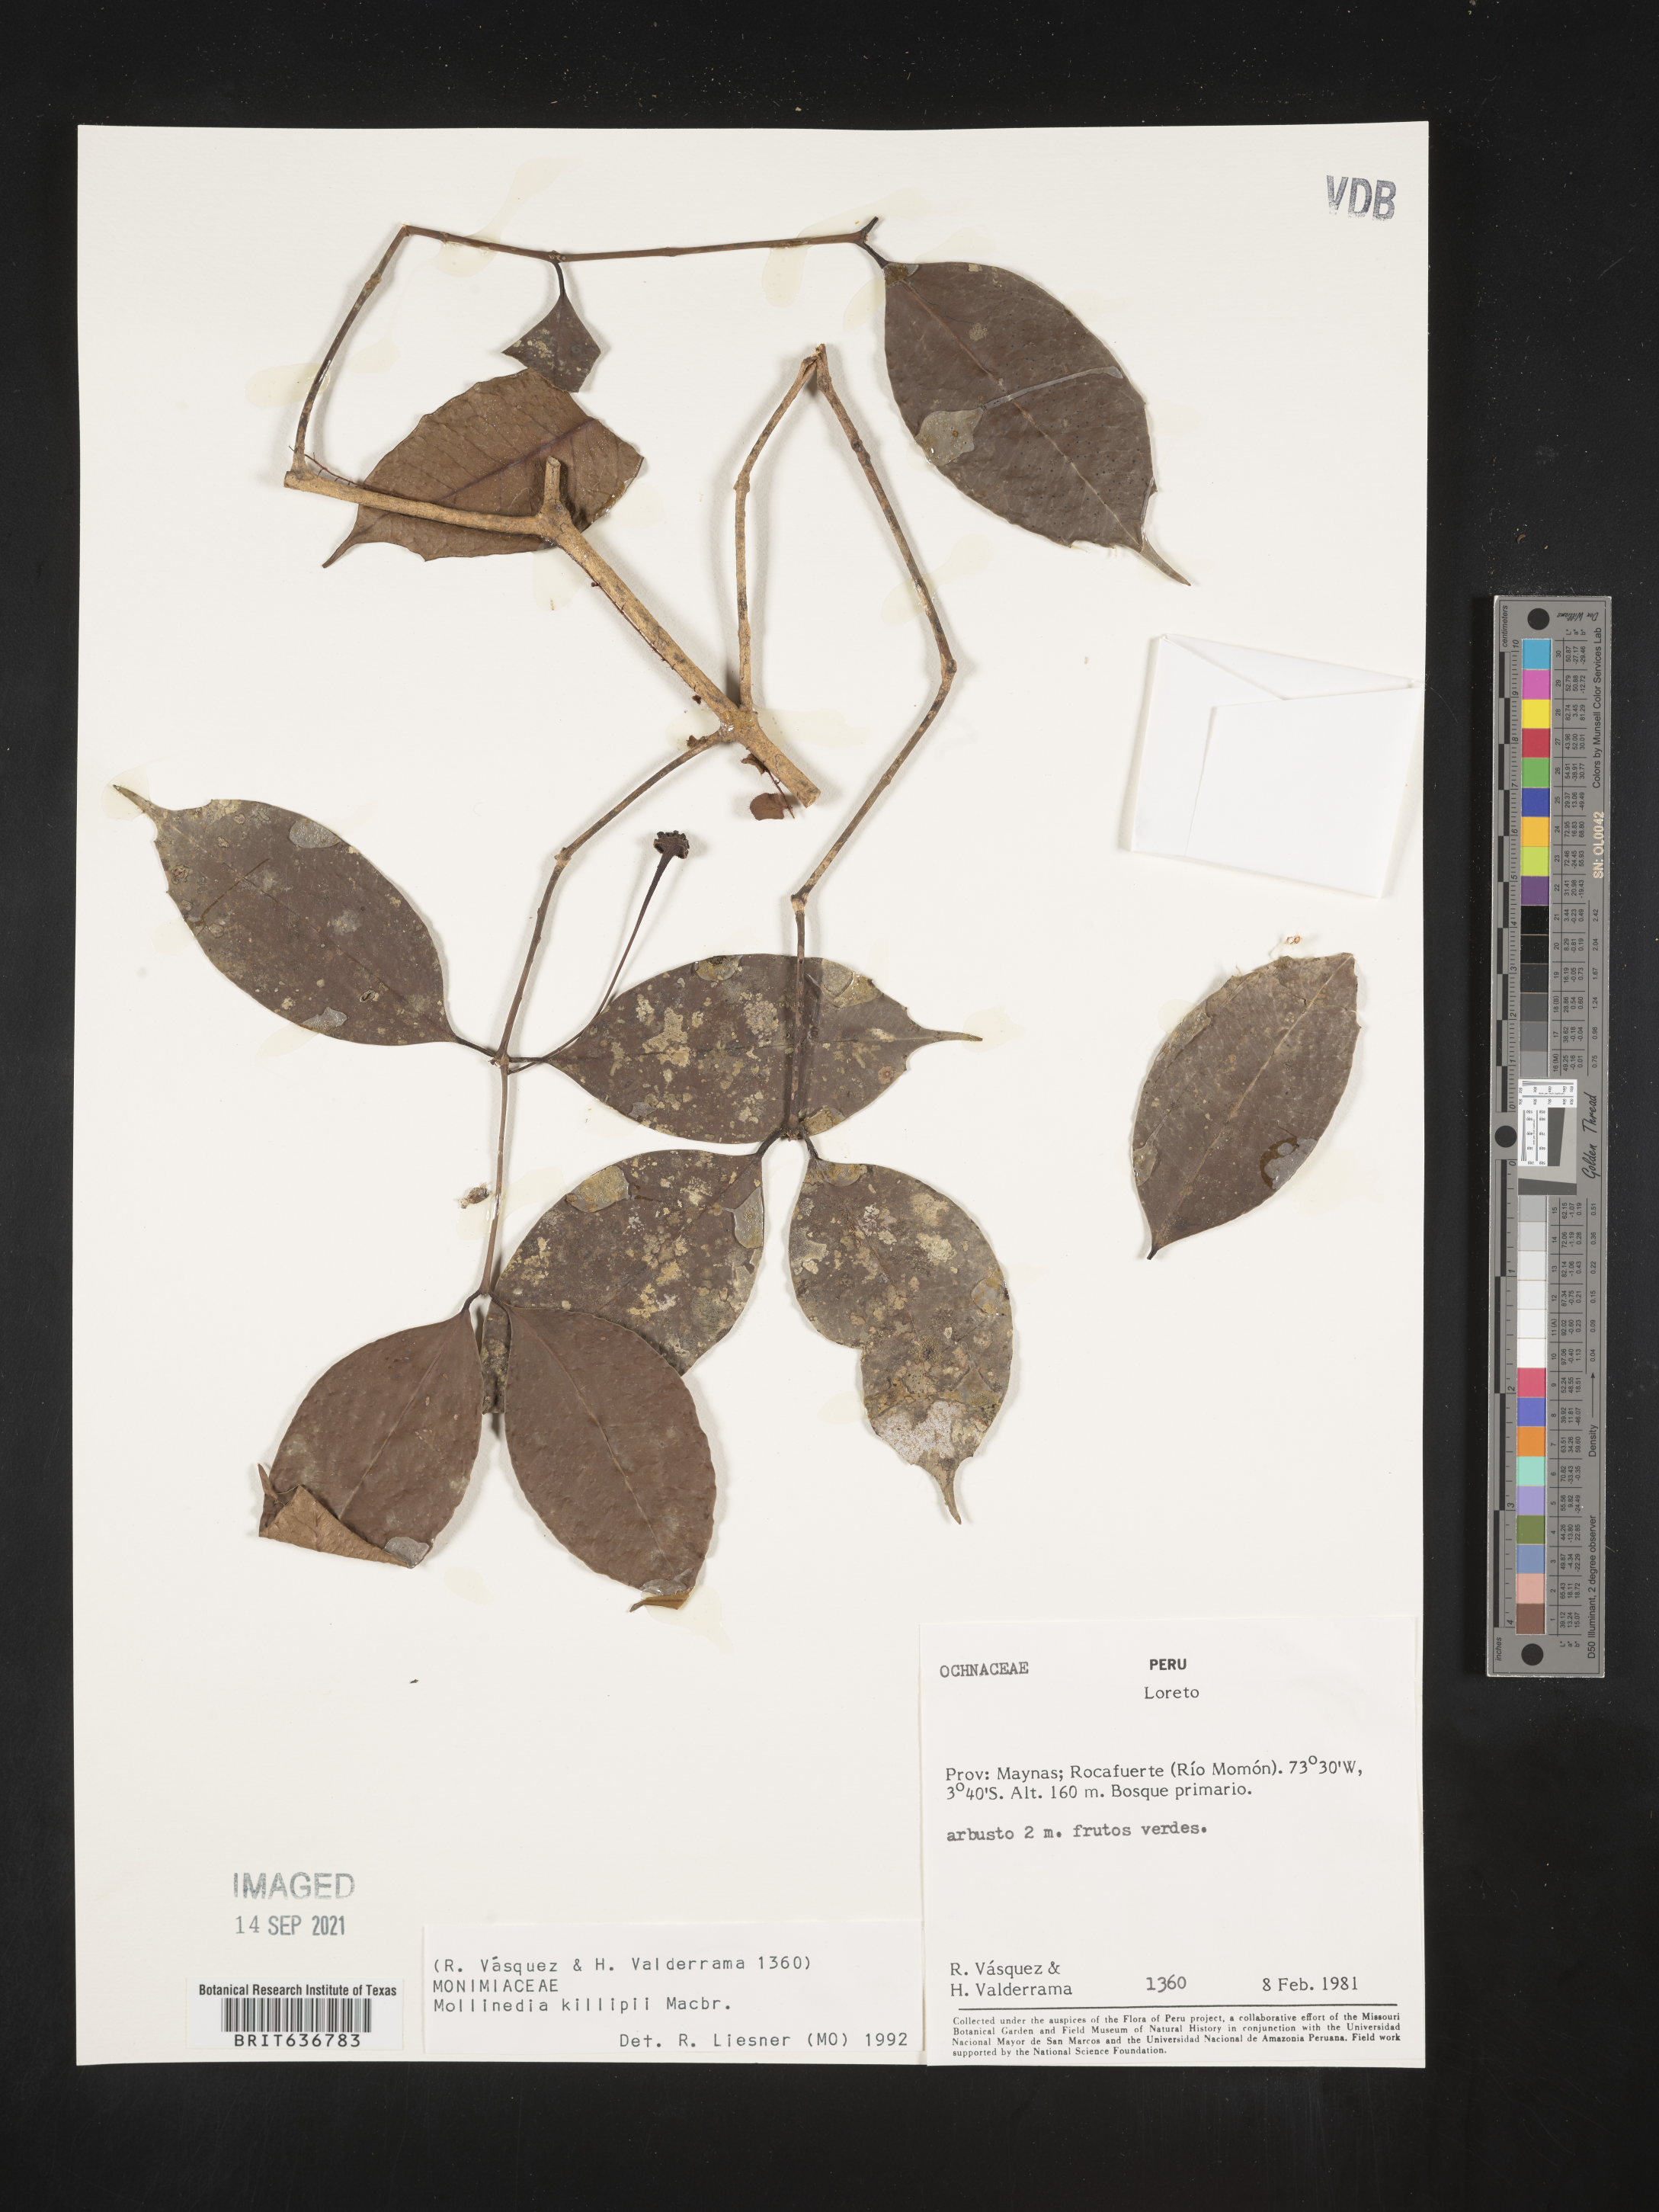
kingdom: Plantae
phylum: Tracheophyta
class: Magnoliopsida
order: Laurales
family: Monimiaceae
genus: Mollinedia
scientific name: Mollinedia
